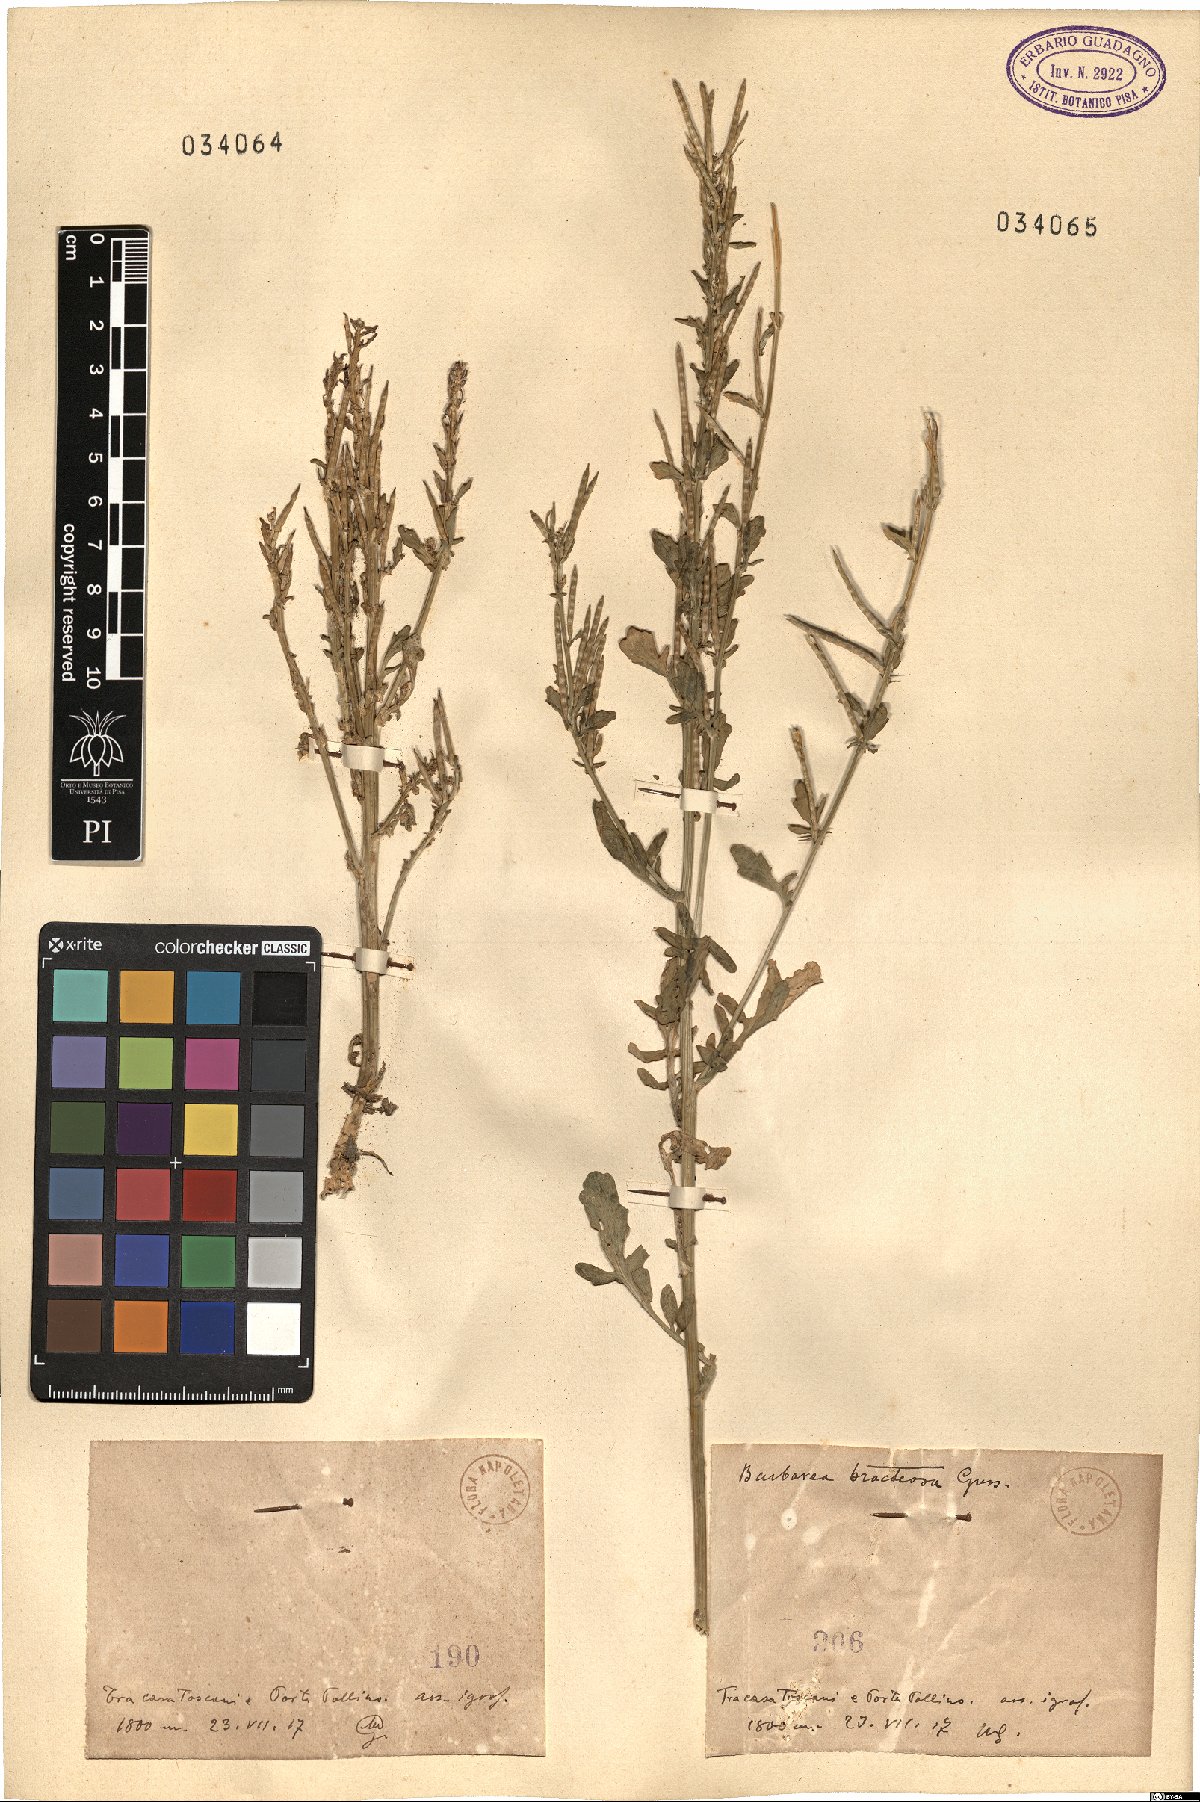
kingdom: Plantae
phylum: Tracheophyta
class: Magnoliopsida
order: Brassicales
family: Brassicaceae
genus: Barbarea
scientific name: Barbarea
